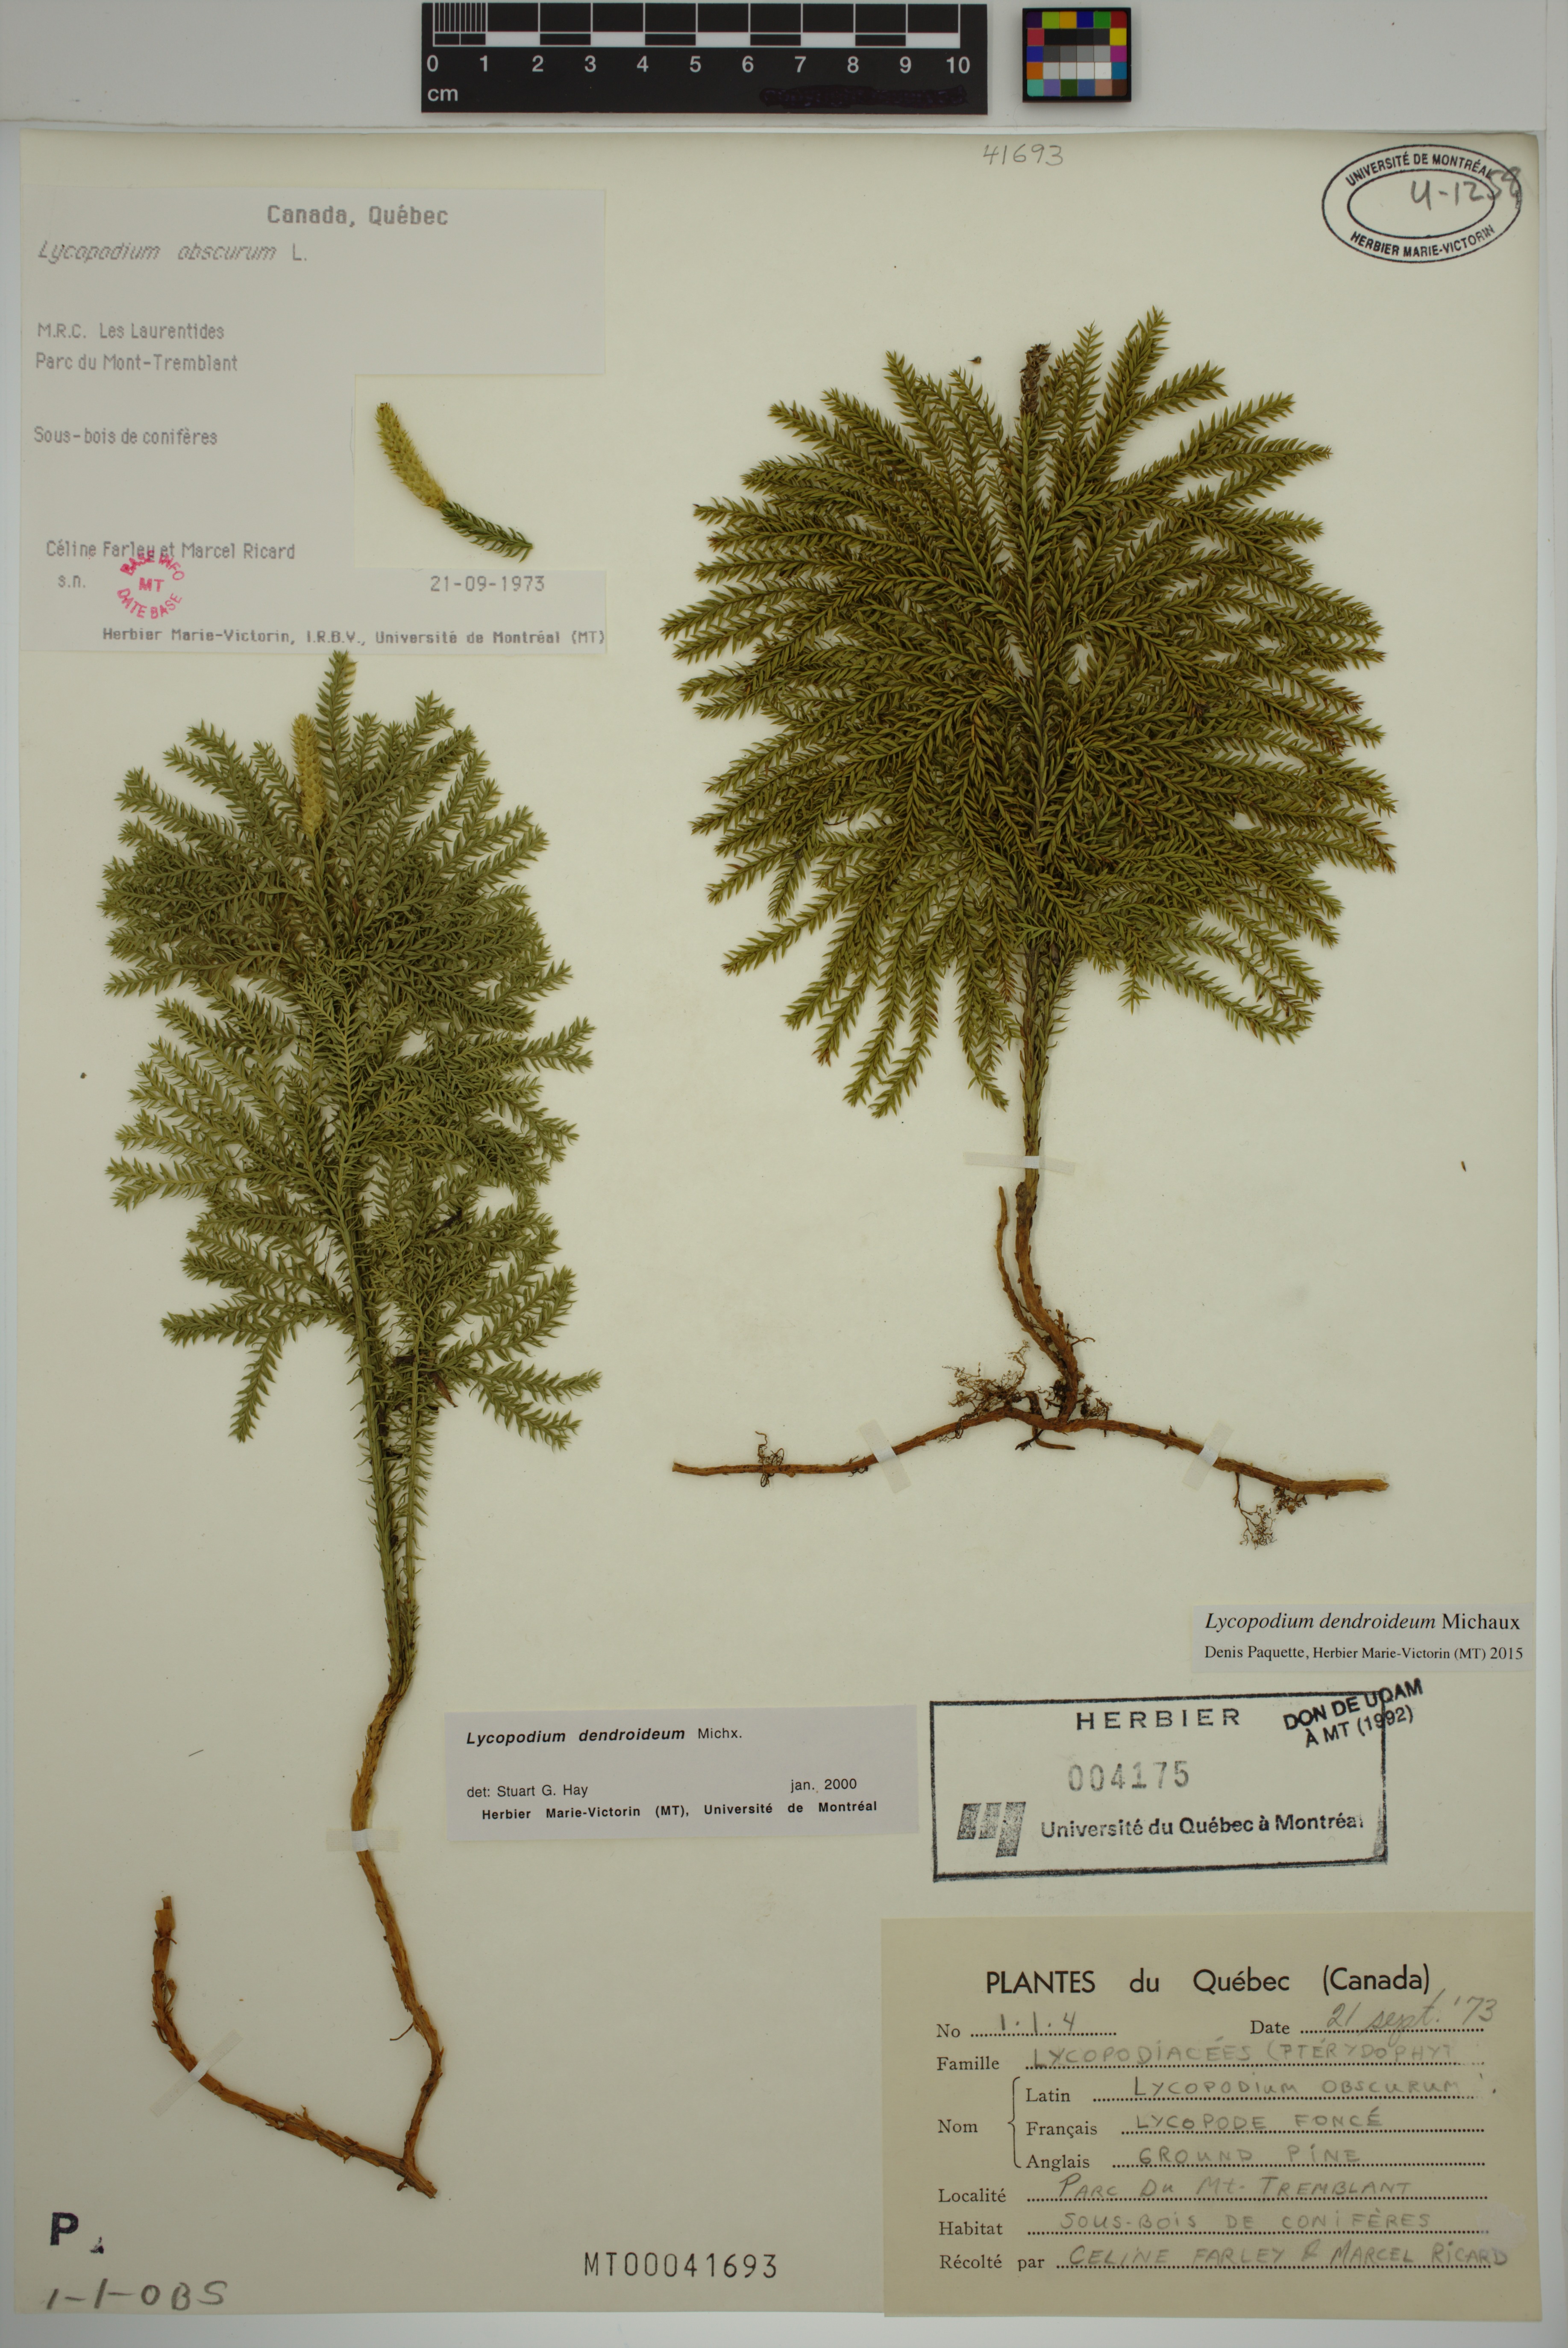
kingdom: Plantae
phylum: Tracheophyta
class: Lycopodiopsida
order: Lycopodiales
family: Lycopodiaceae
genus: Dendrolycopodium
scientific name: Dendrolycopodium dendroideum
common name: Northern tree-clubmoss
